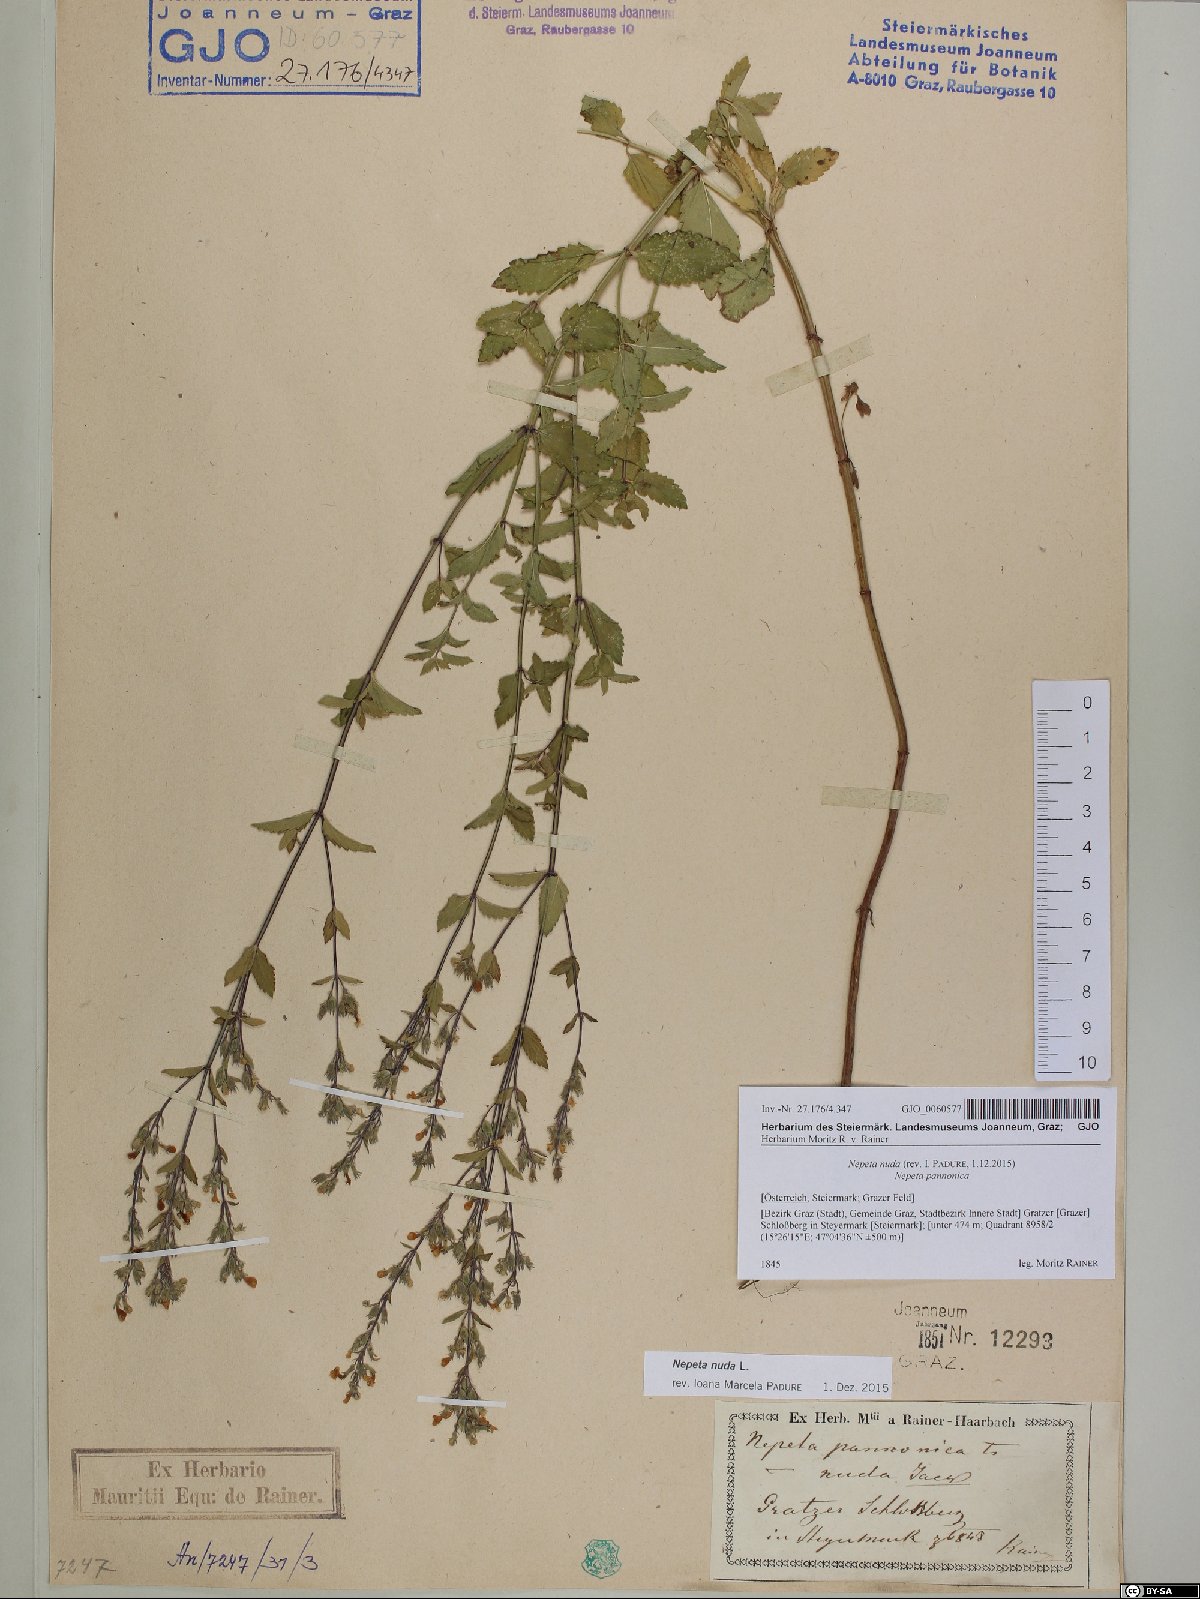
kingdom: Plantae
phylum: Tracheophyta
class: Magnoliopsida
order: Lamiales
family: Lamiaceae
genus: Nepeta
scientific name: Nepeta nuda
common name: Hairless catmint
